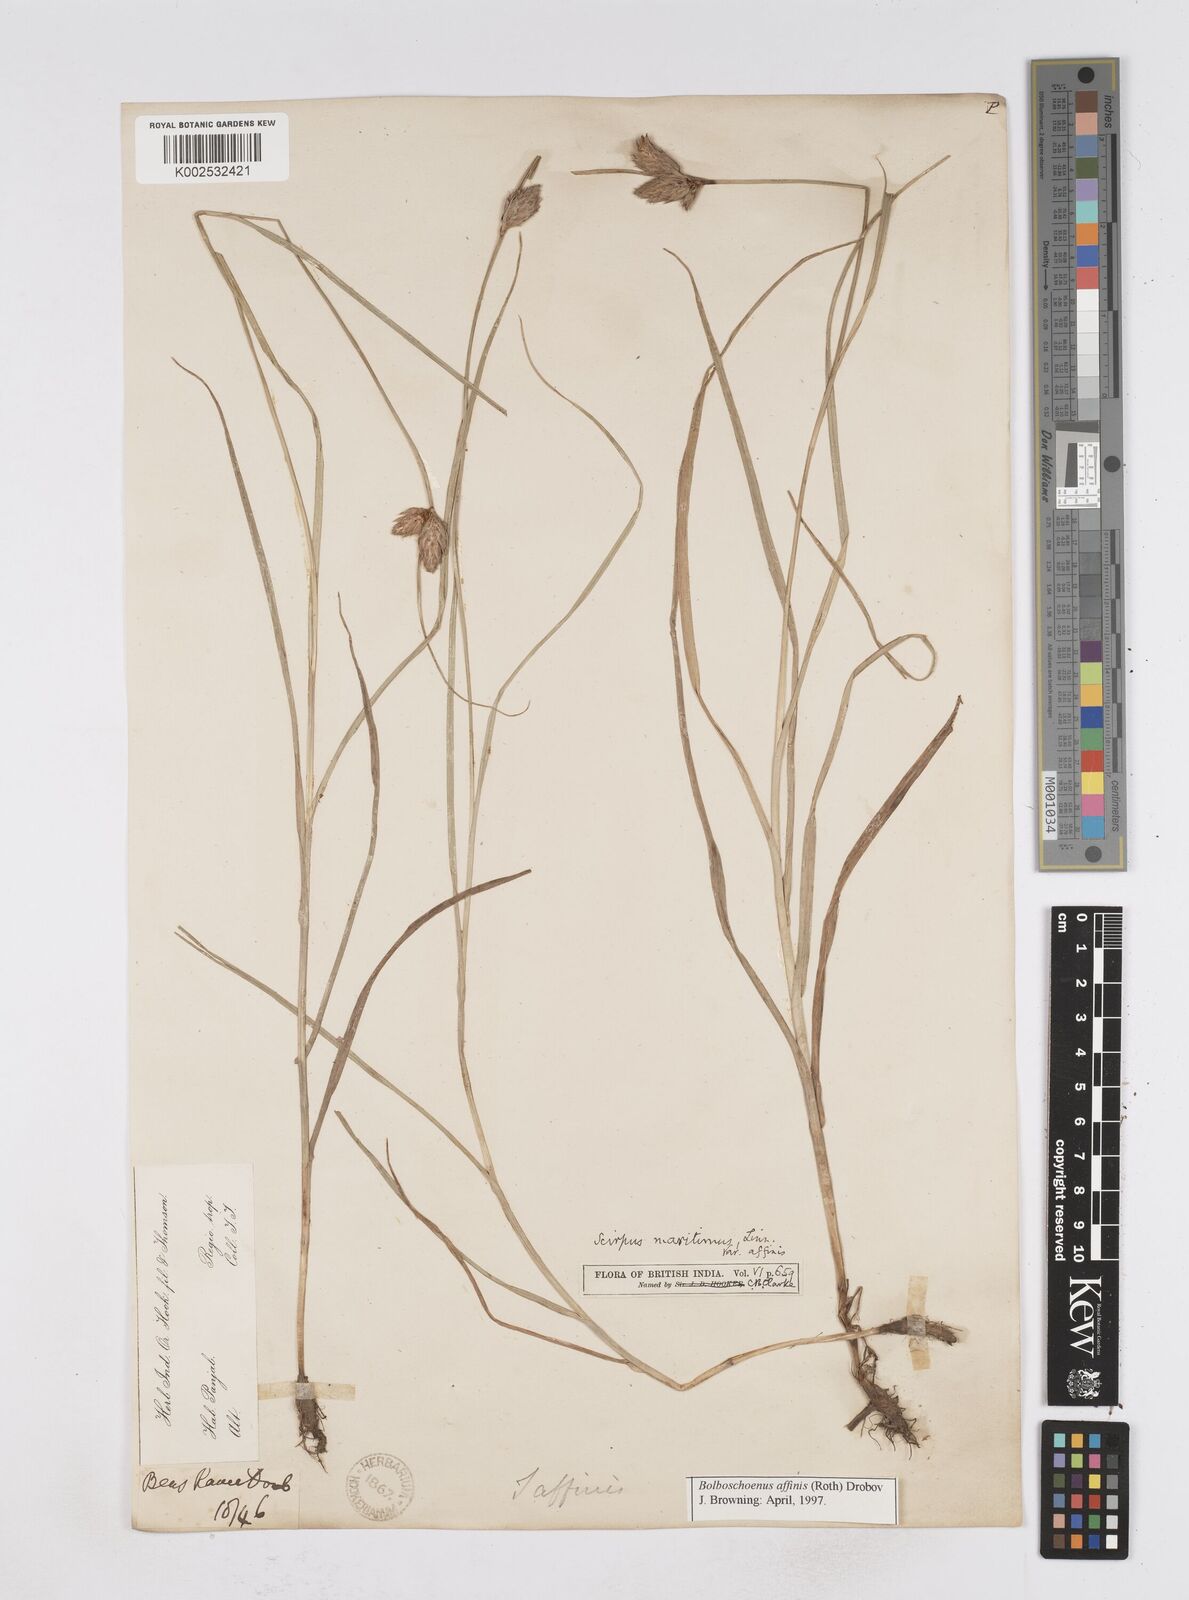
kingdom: Plantae
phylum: Tracheophyta
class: Liliopsida
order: Poales
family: Cyperaceae
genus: Bolboschoenus
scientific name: Bolboschoenus maritimus
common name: Sea club-rush
